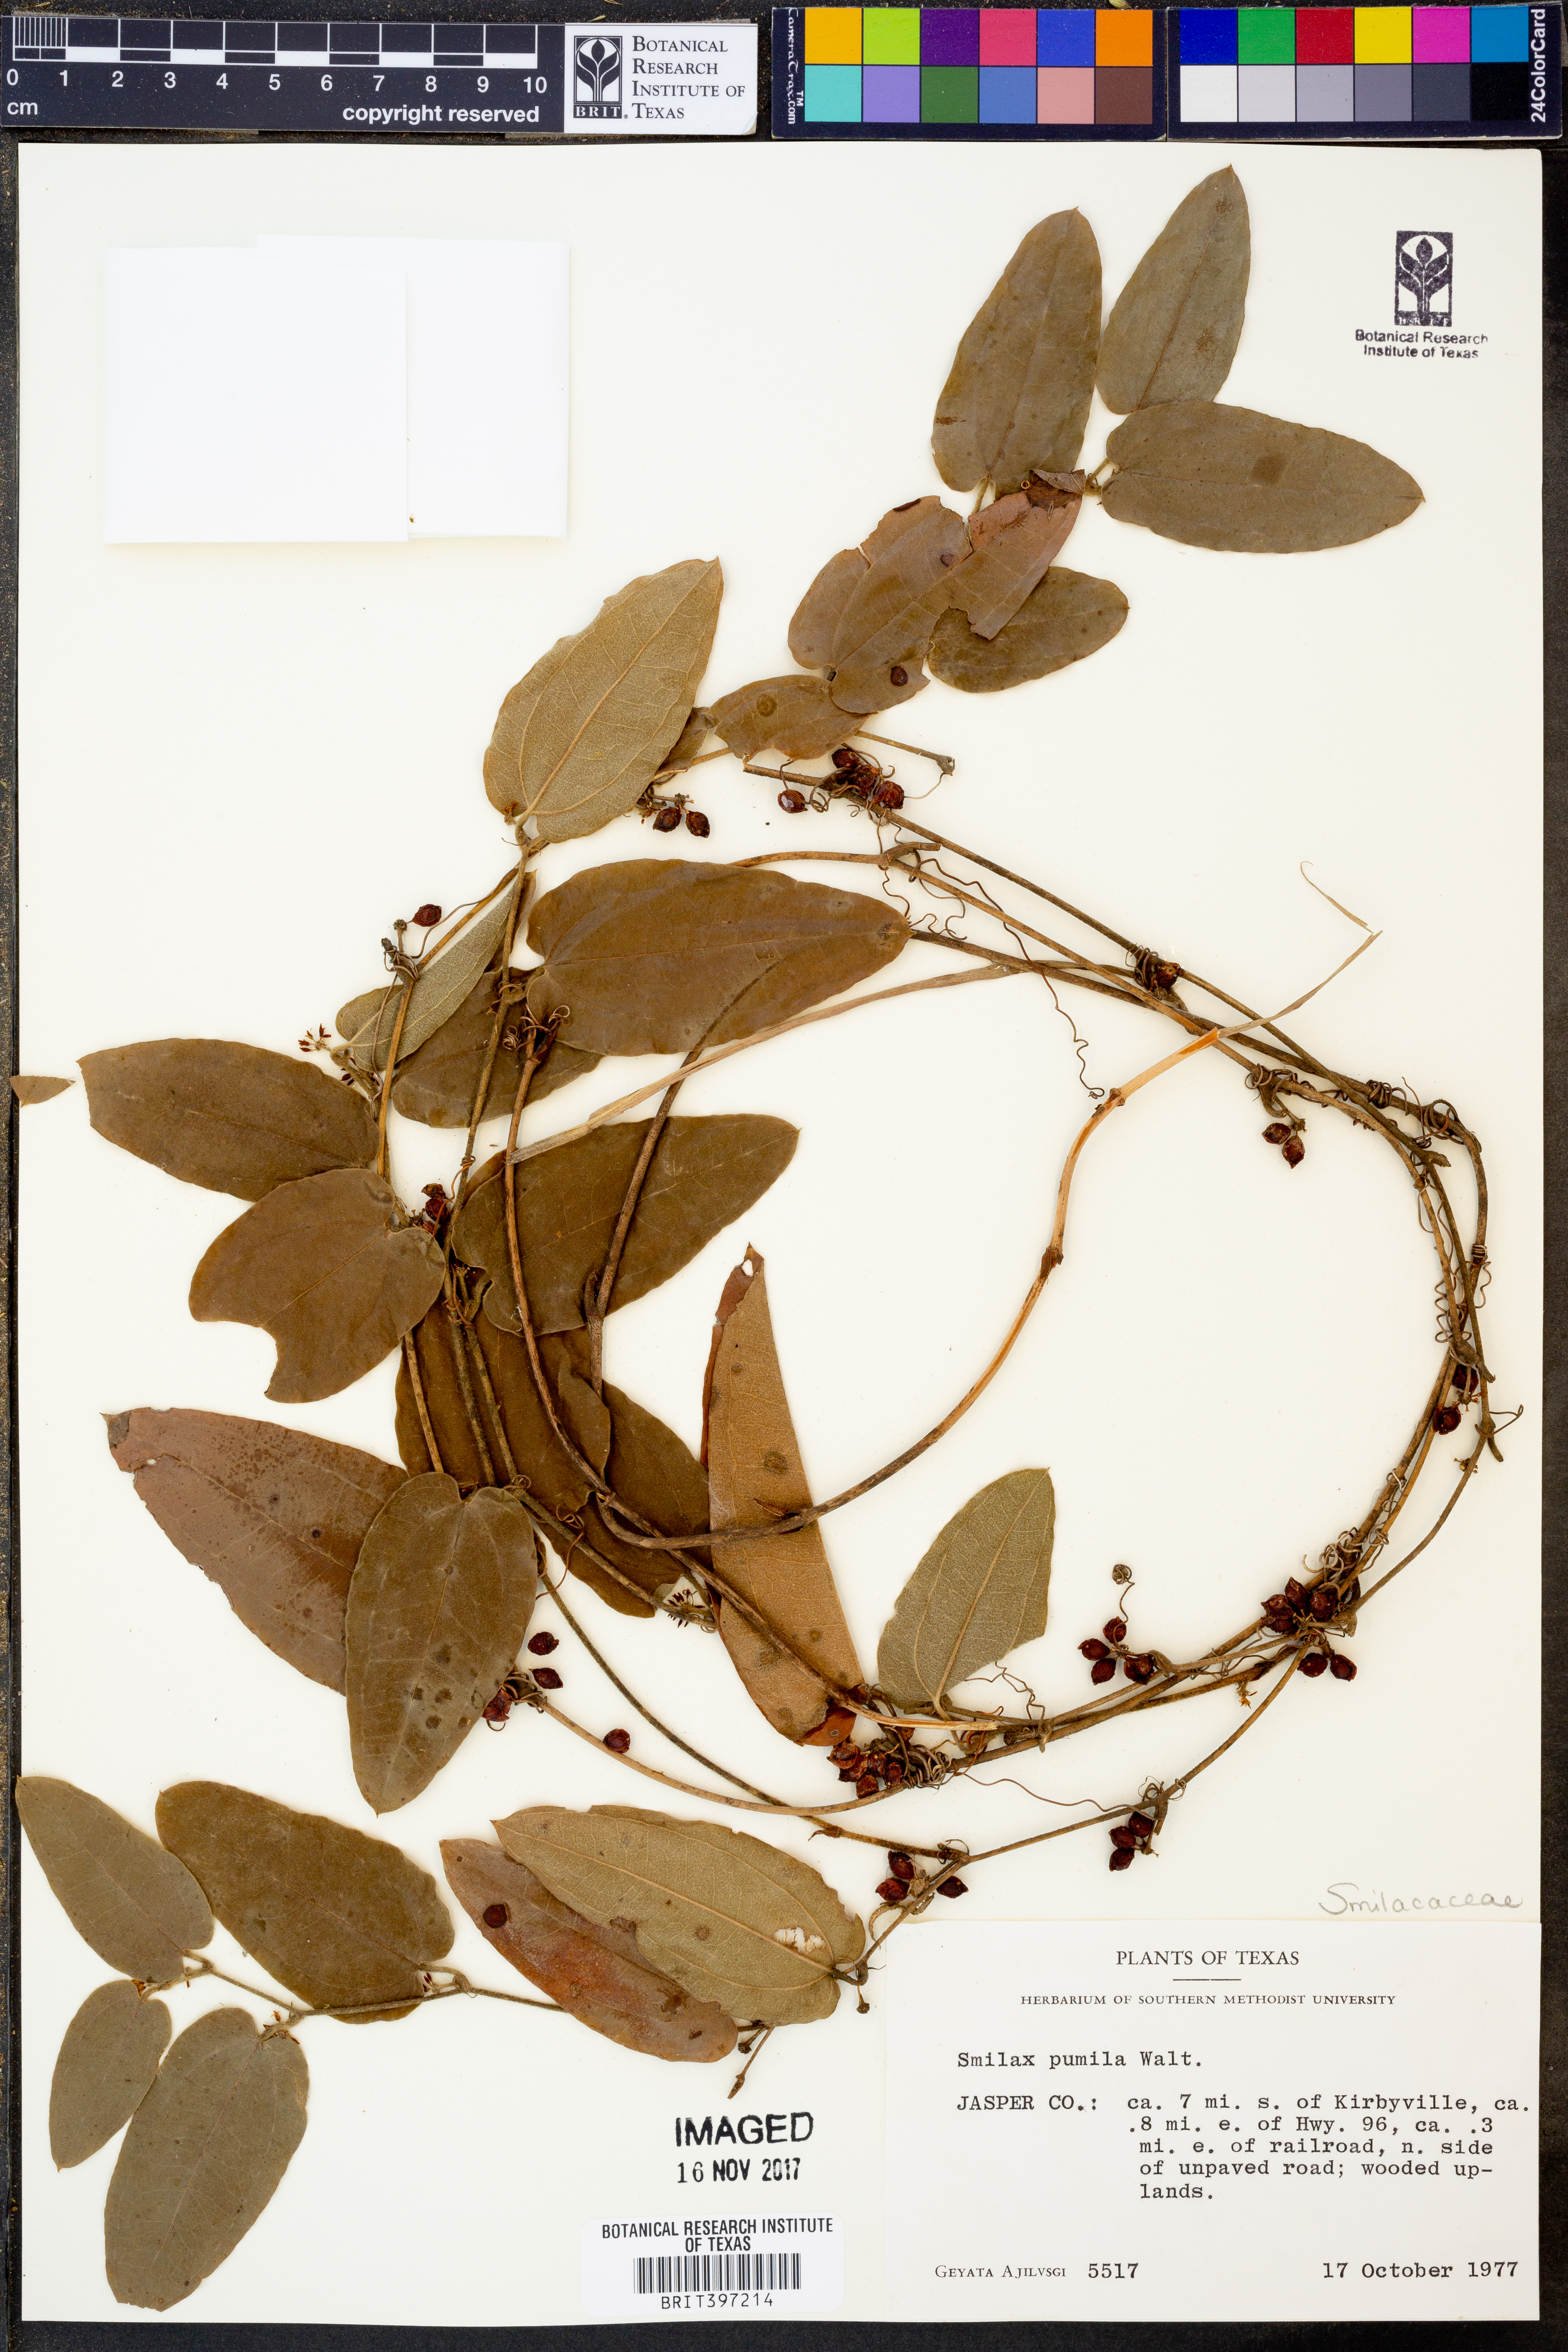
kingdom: Plantae
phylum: Tracheophyta
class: Liliopsida
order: Liliales
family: Smilacaceae
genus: Smilax
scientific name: Smilax pumila
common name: Sarsaparilla-vine
